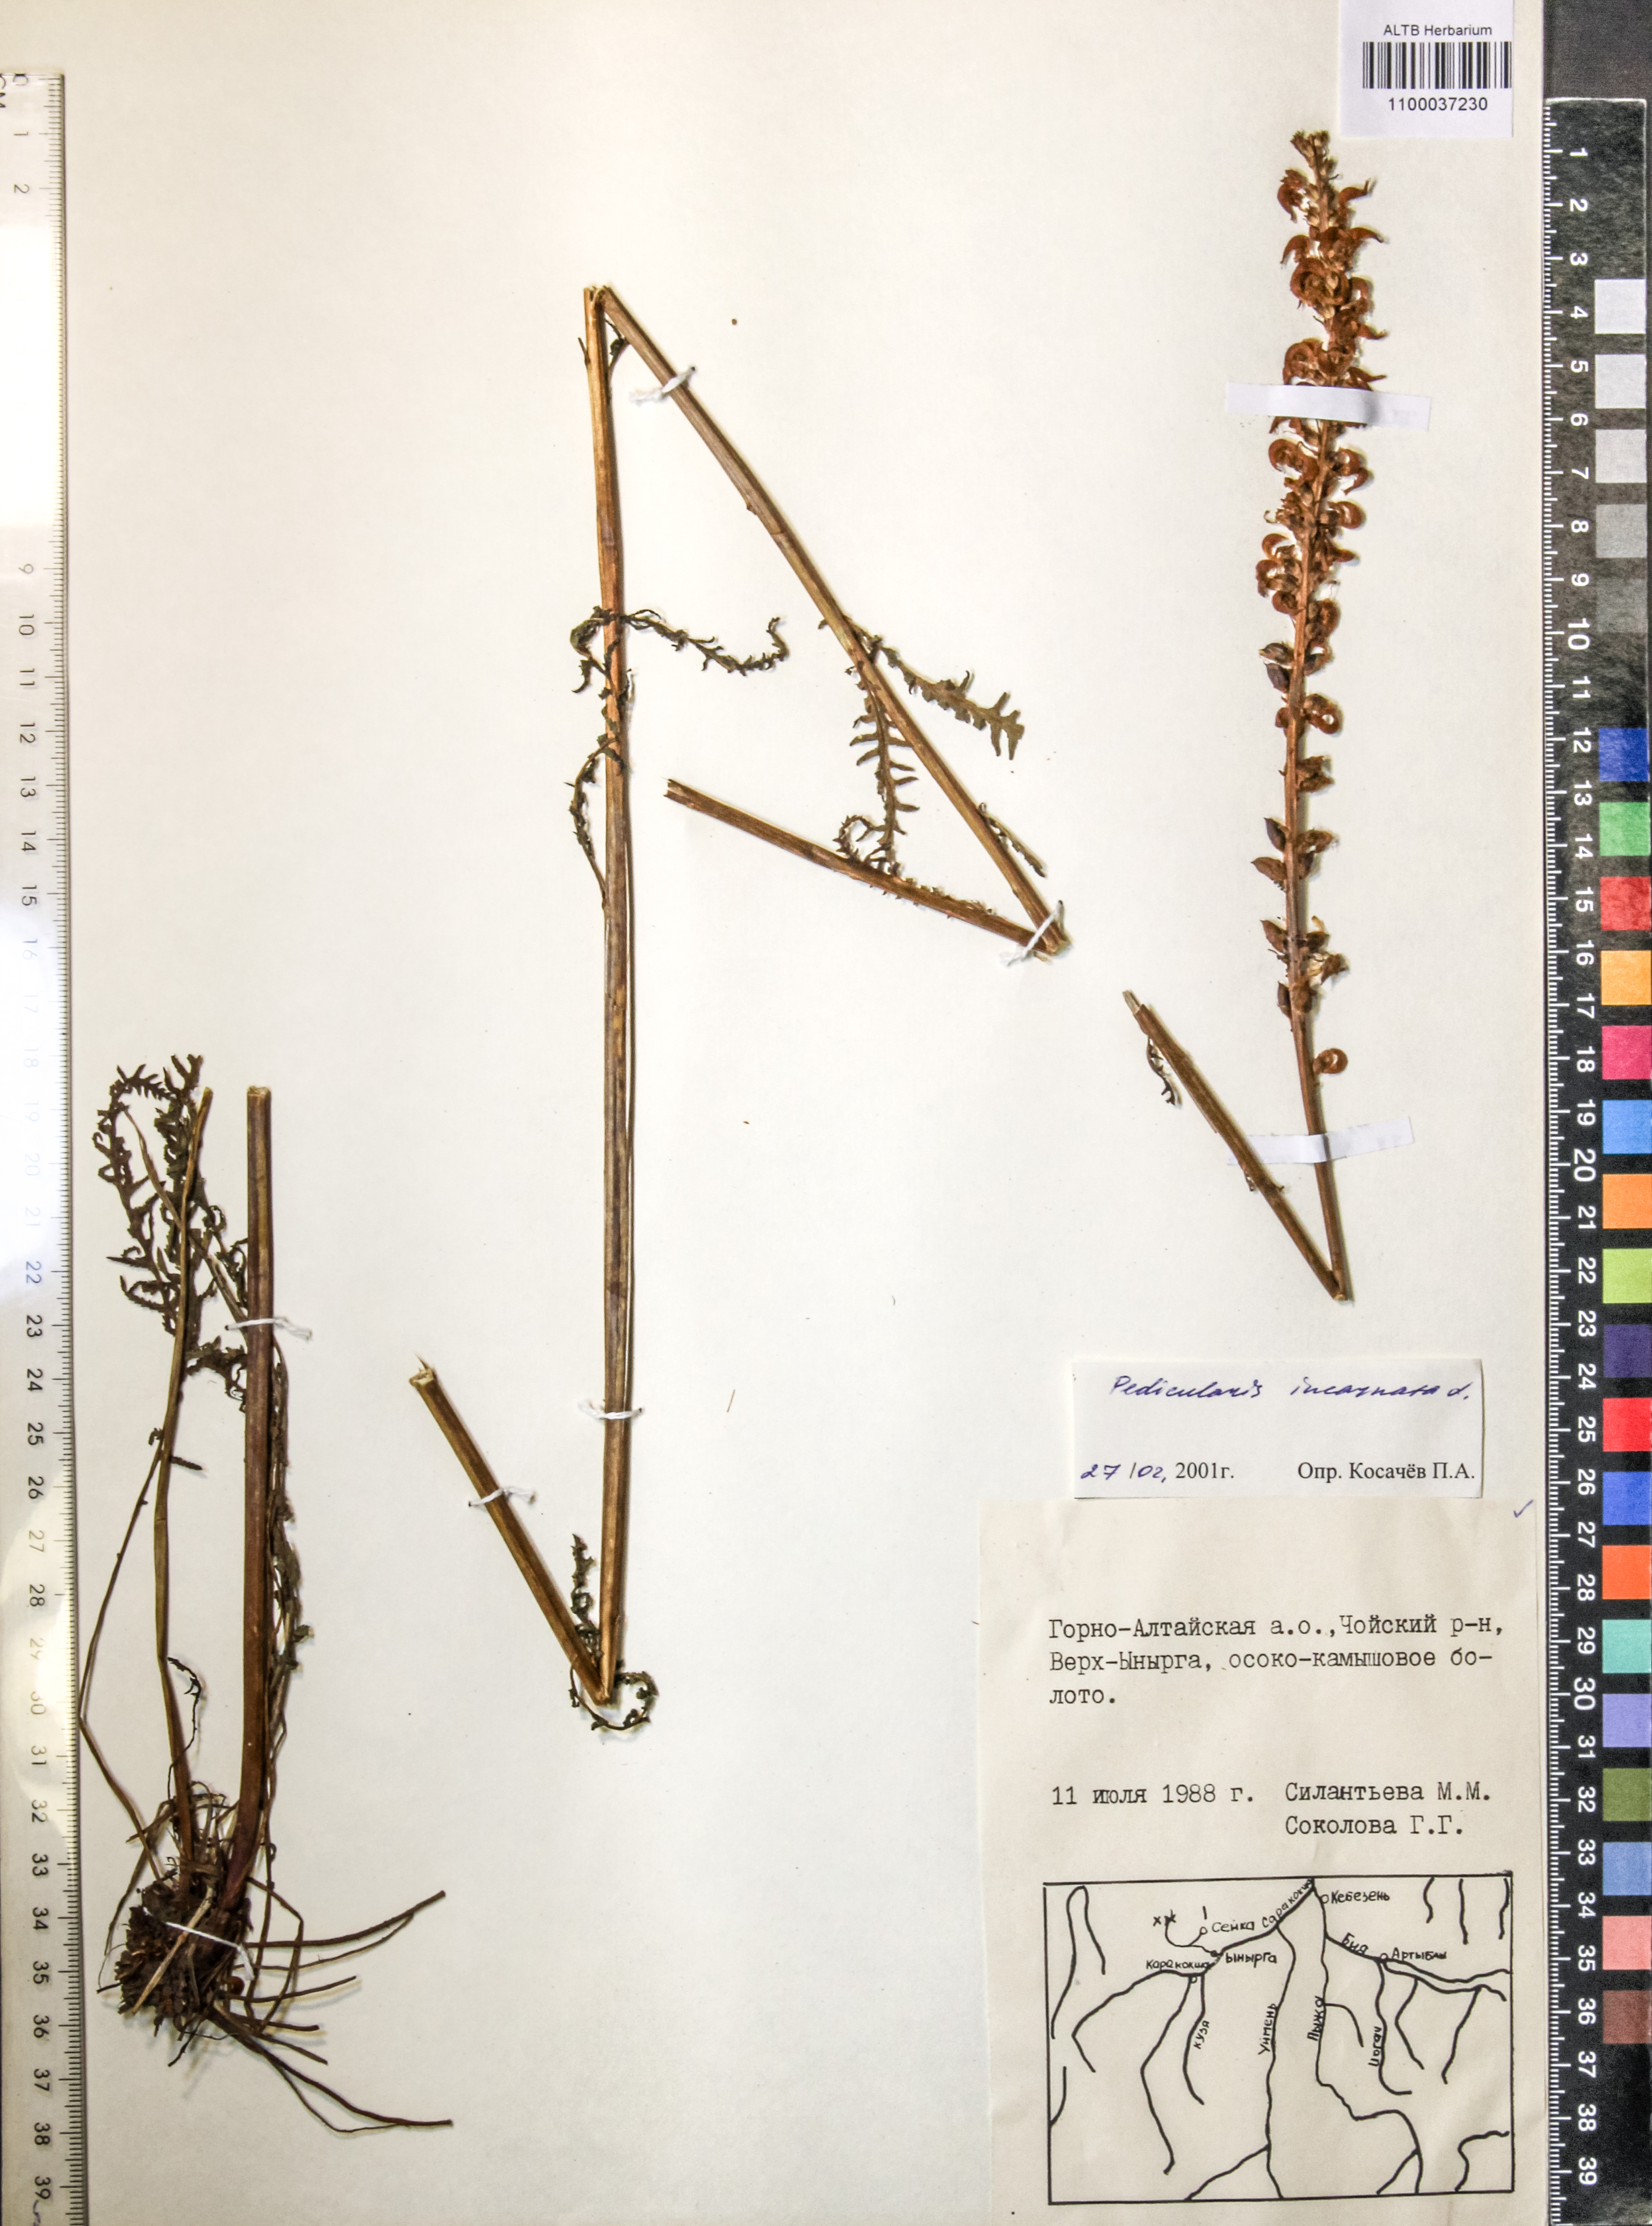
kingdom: Plantae
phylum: Tracheophyta
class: Magnoliopsida
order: Lamiales
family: Orobanchaceae
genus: Pedicularis
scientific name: Pedicularis incarnata
